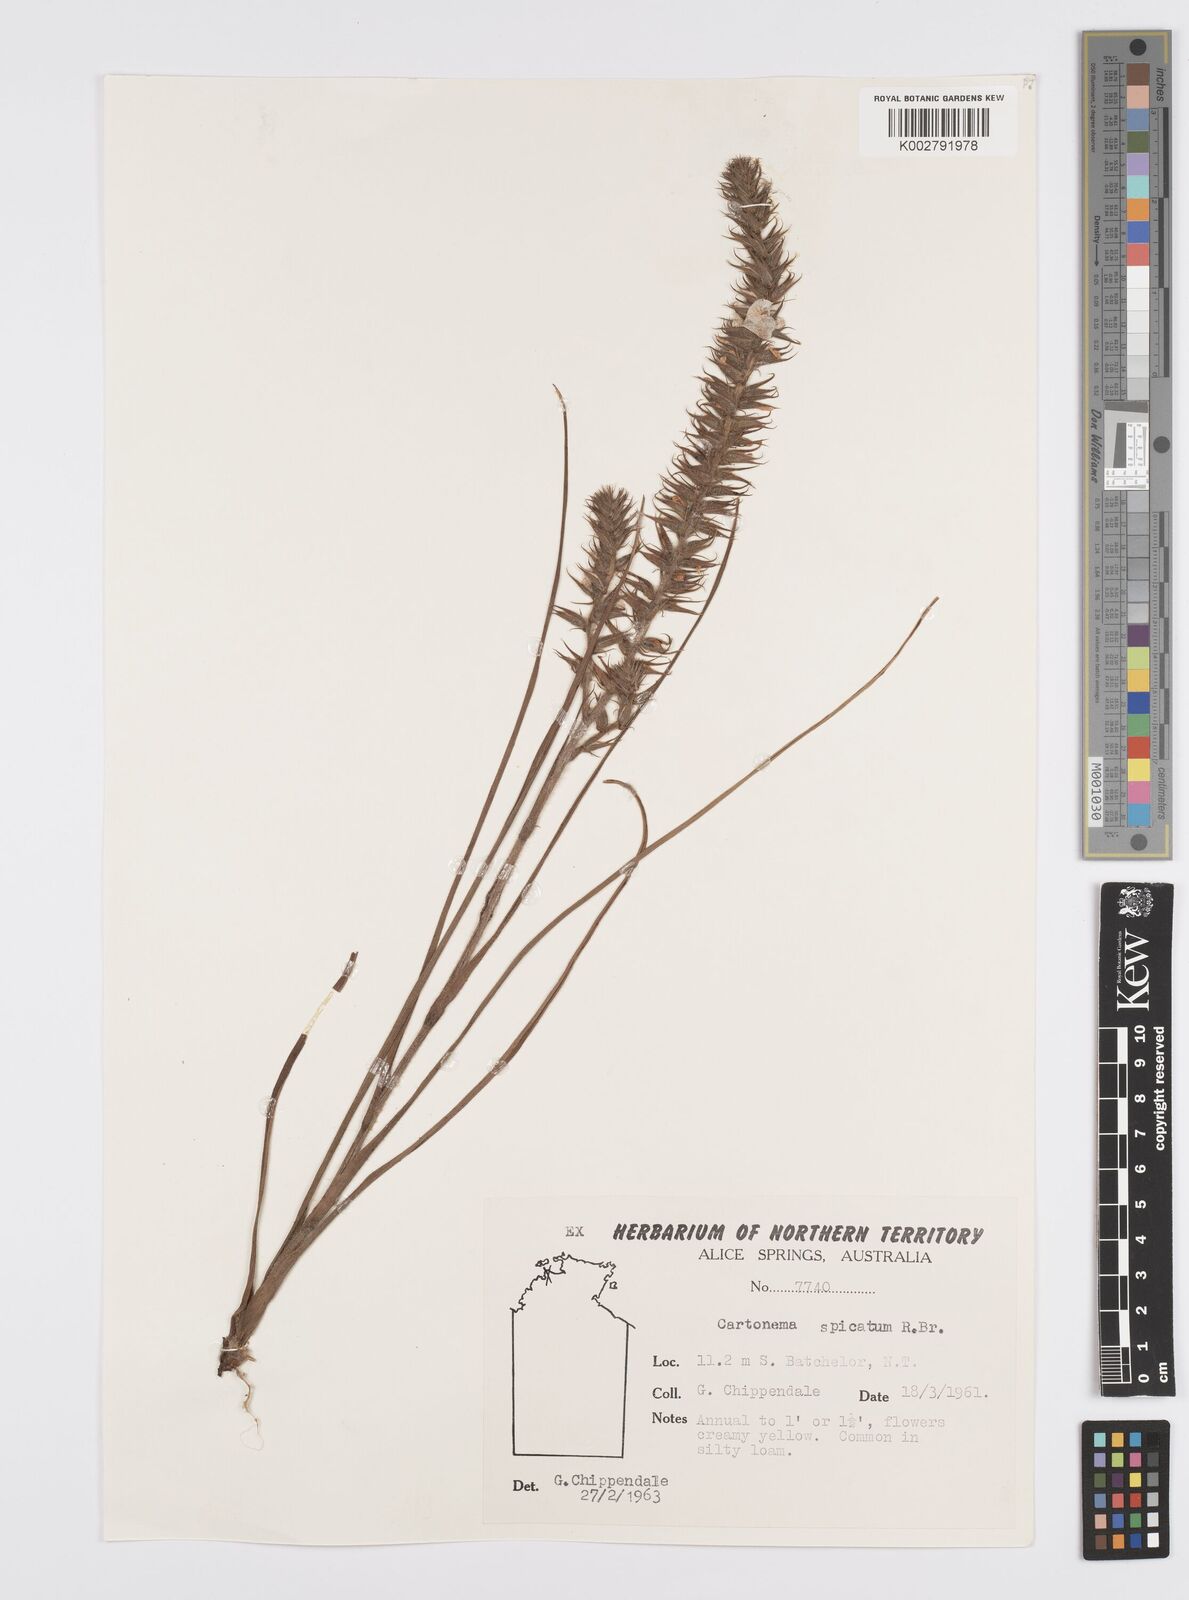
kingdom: Plantae
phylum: Tracheophyta
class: Liliopsida
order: Commelinales
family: Commelinaceae
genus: Cartonema
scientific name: Cartonema spicatum
